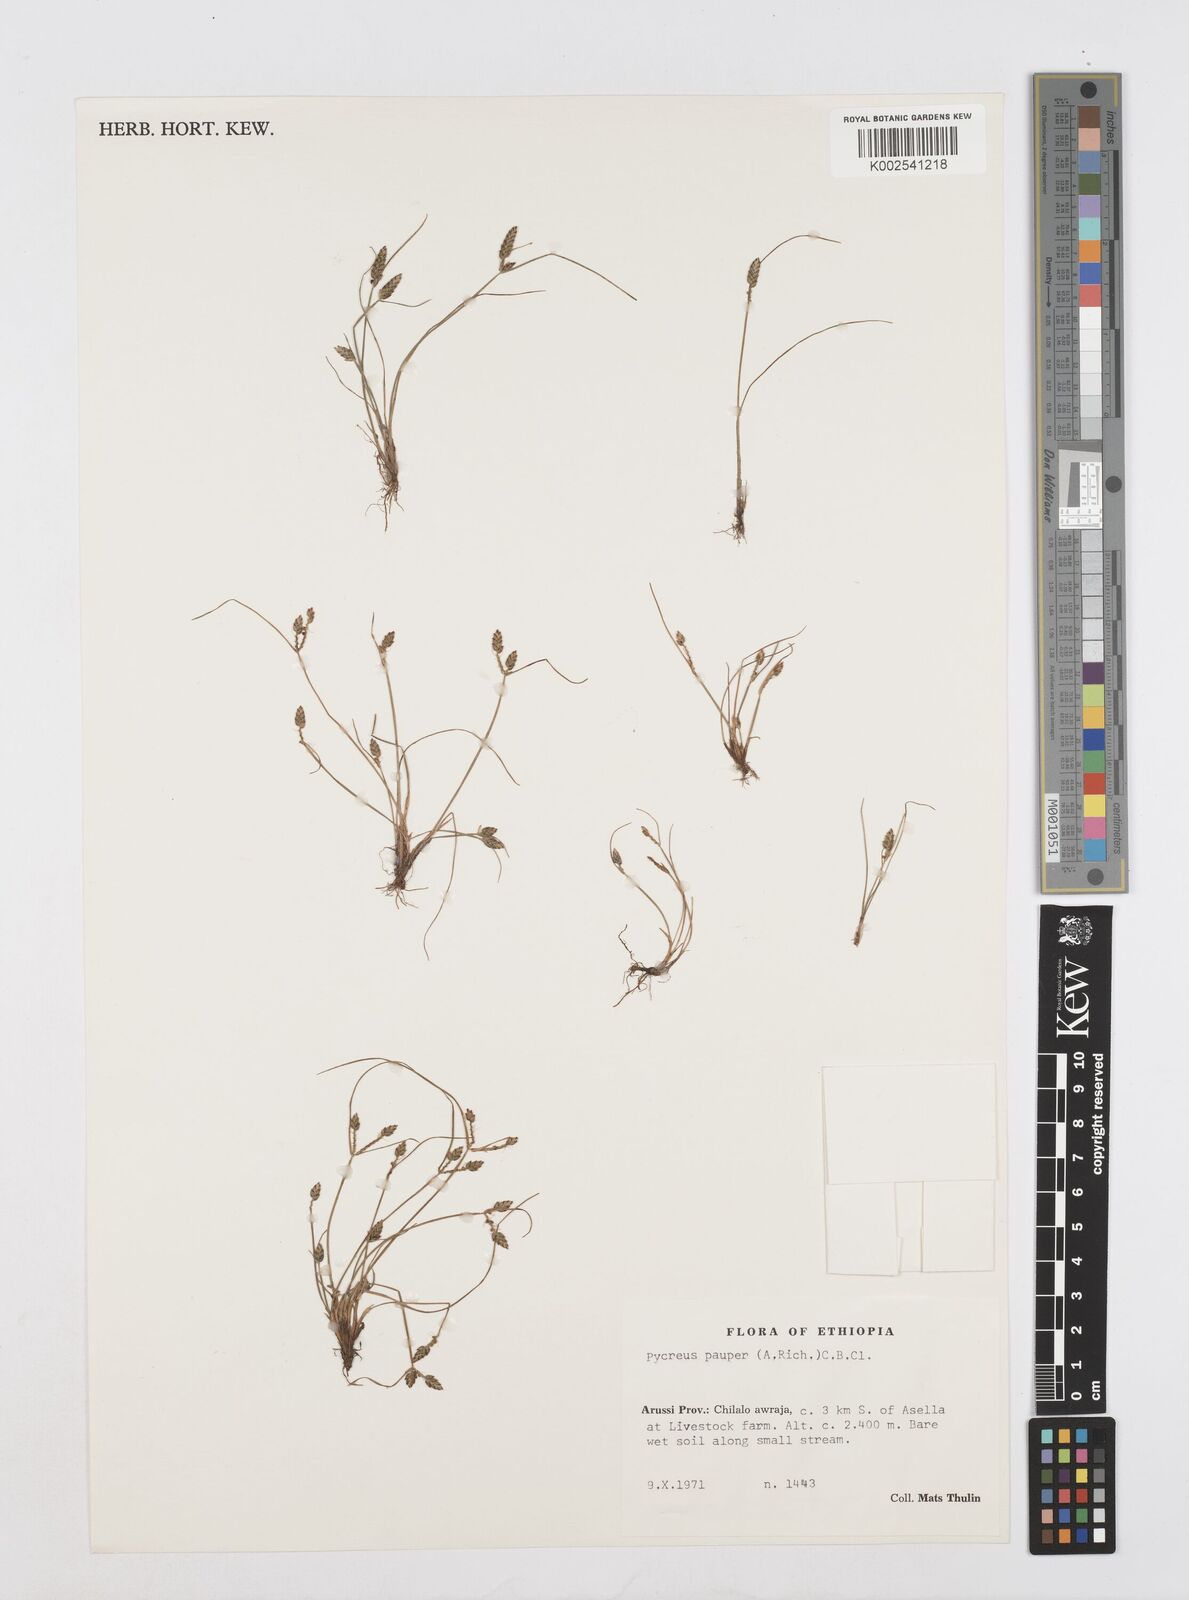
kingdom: Plantae
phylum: Tracheophyta
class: Liliopsida
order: Poales
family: Cyperaceae
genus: Cyperus
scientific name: Cyperus pauper
